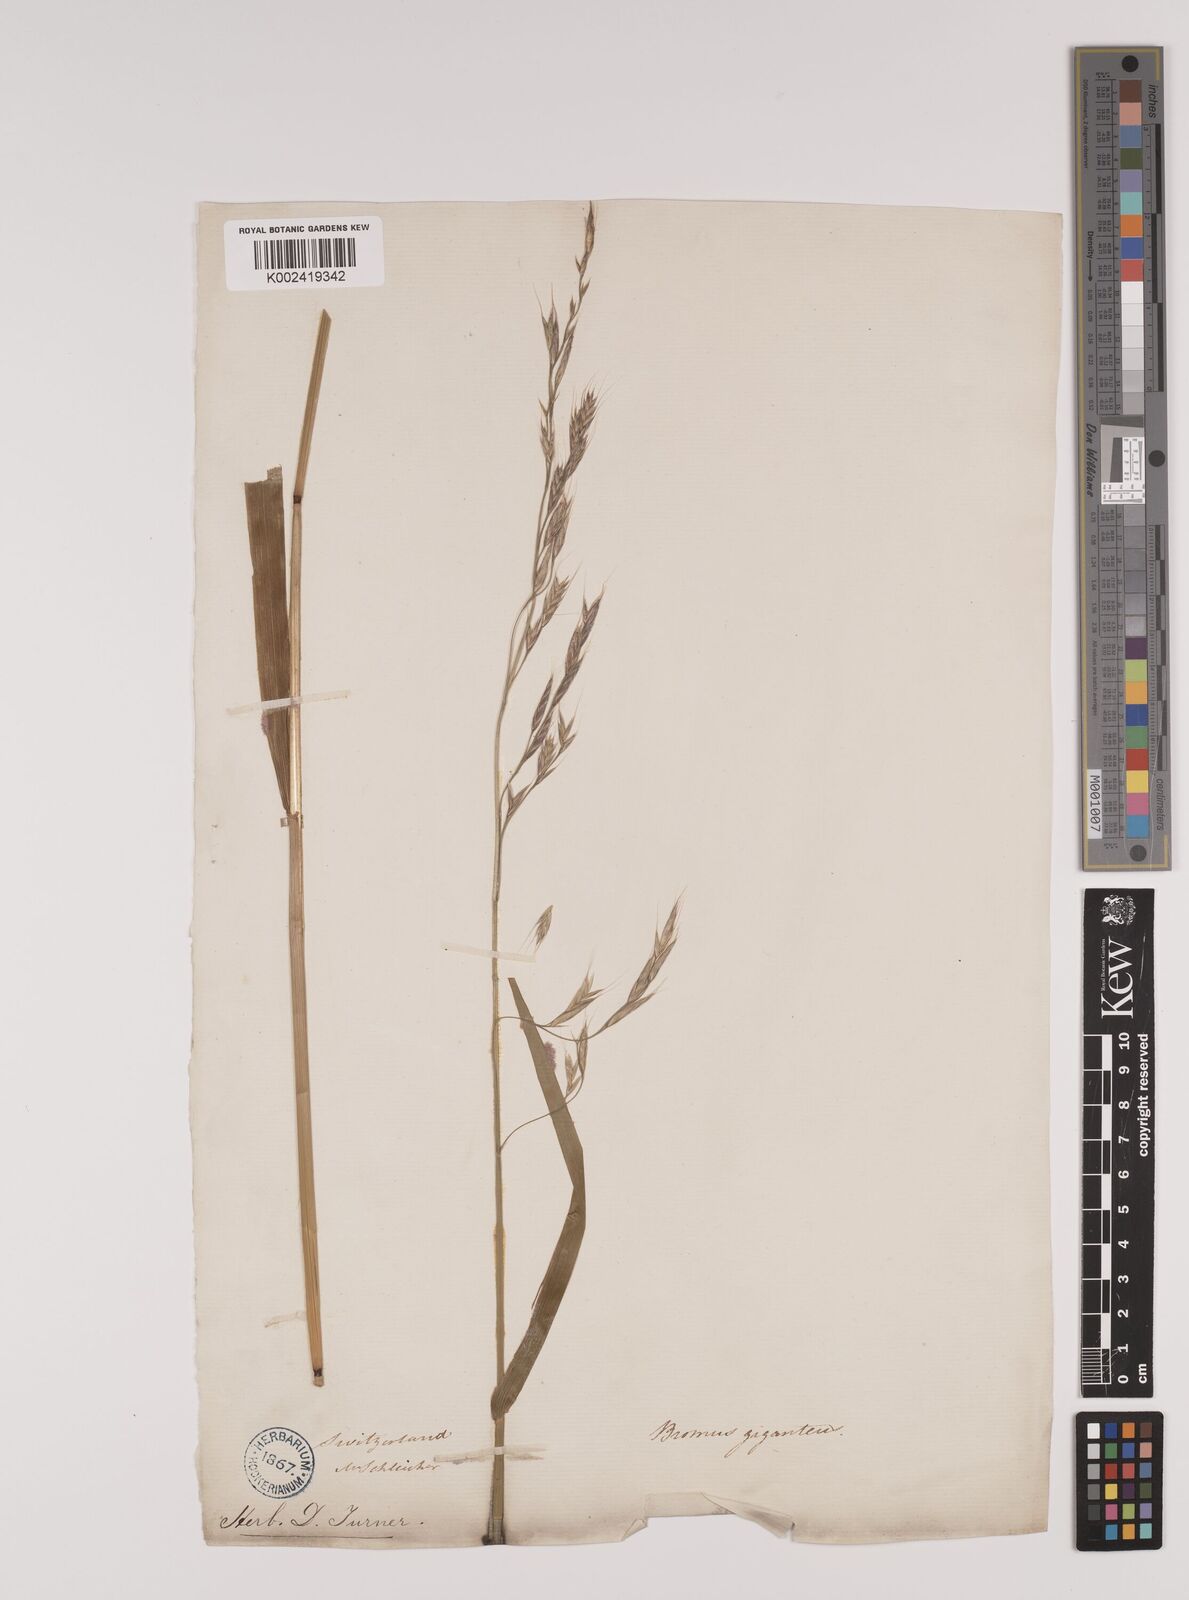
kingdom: Plantae
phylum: Tracheophyta
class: Liliopsida
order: Poales
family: Poaceae
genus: Lolium
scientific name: Lolium giganteum
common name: Giant fescue
